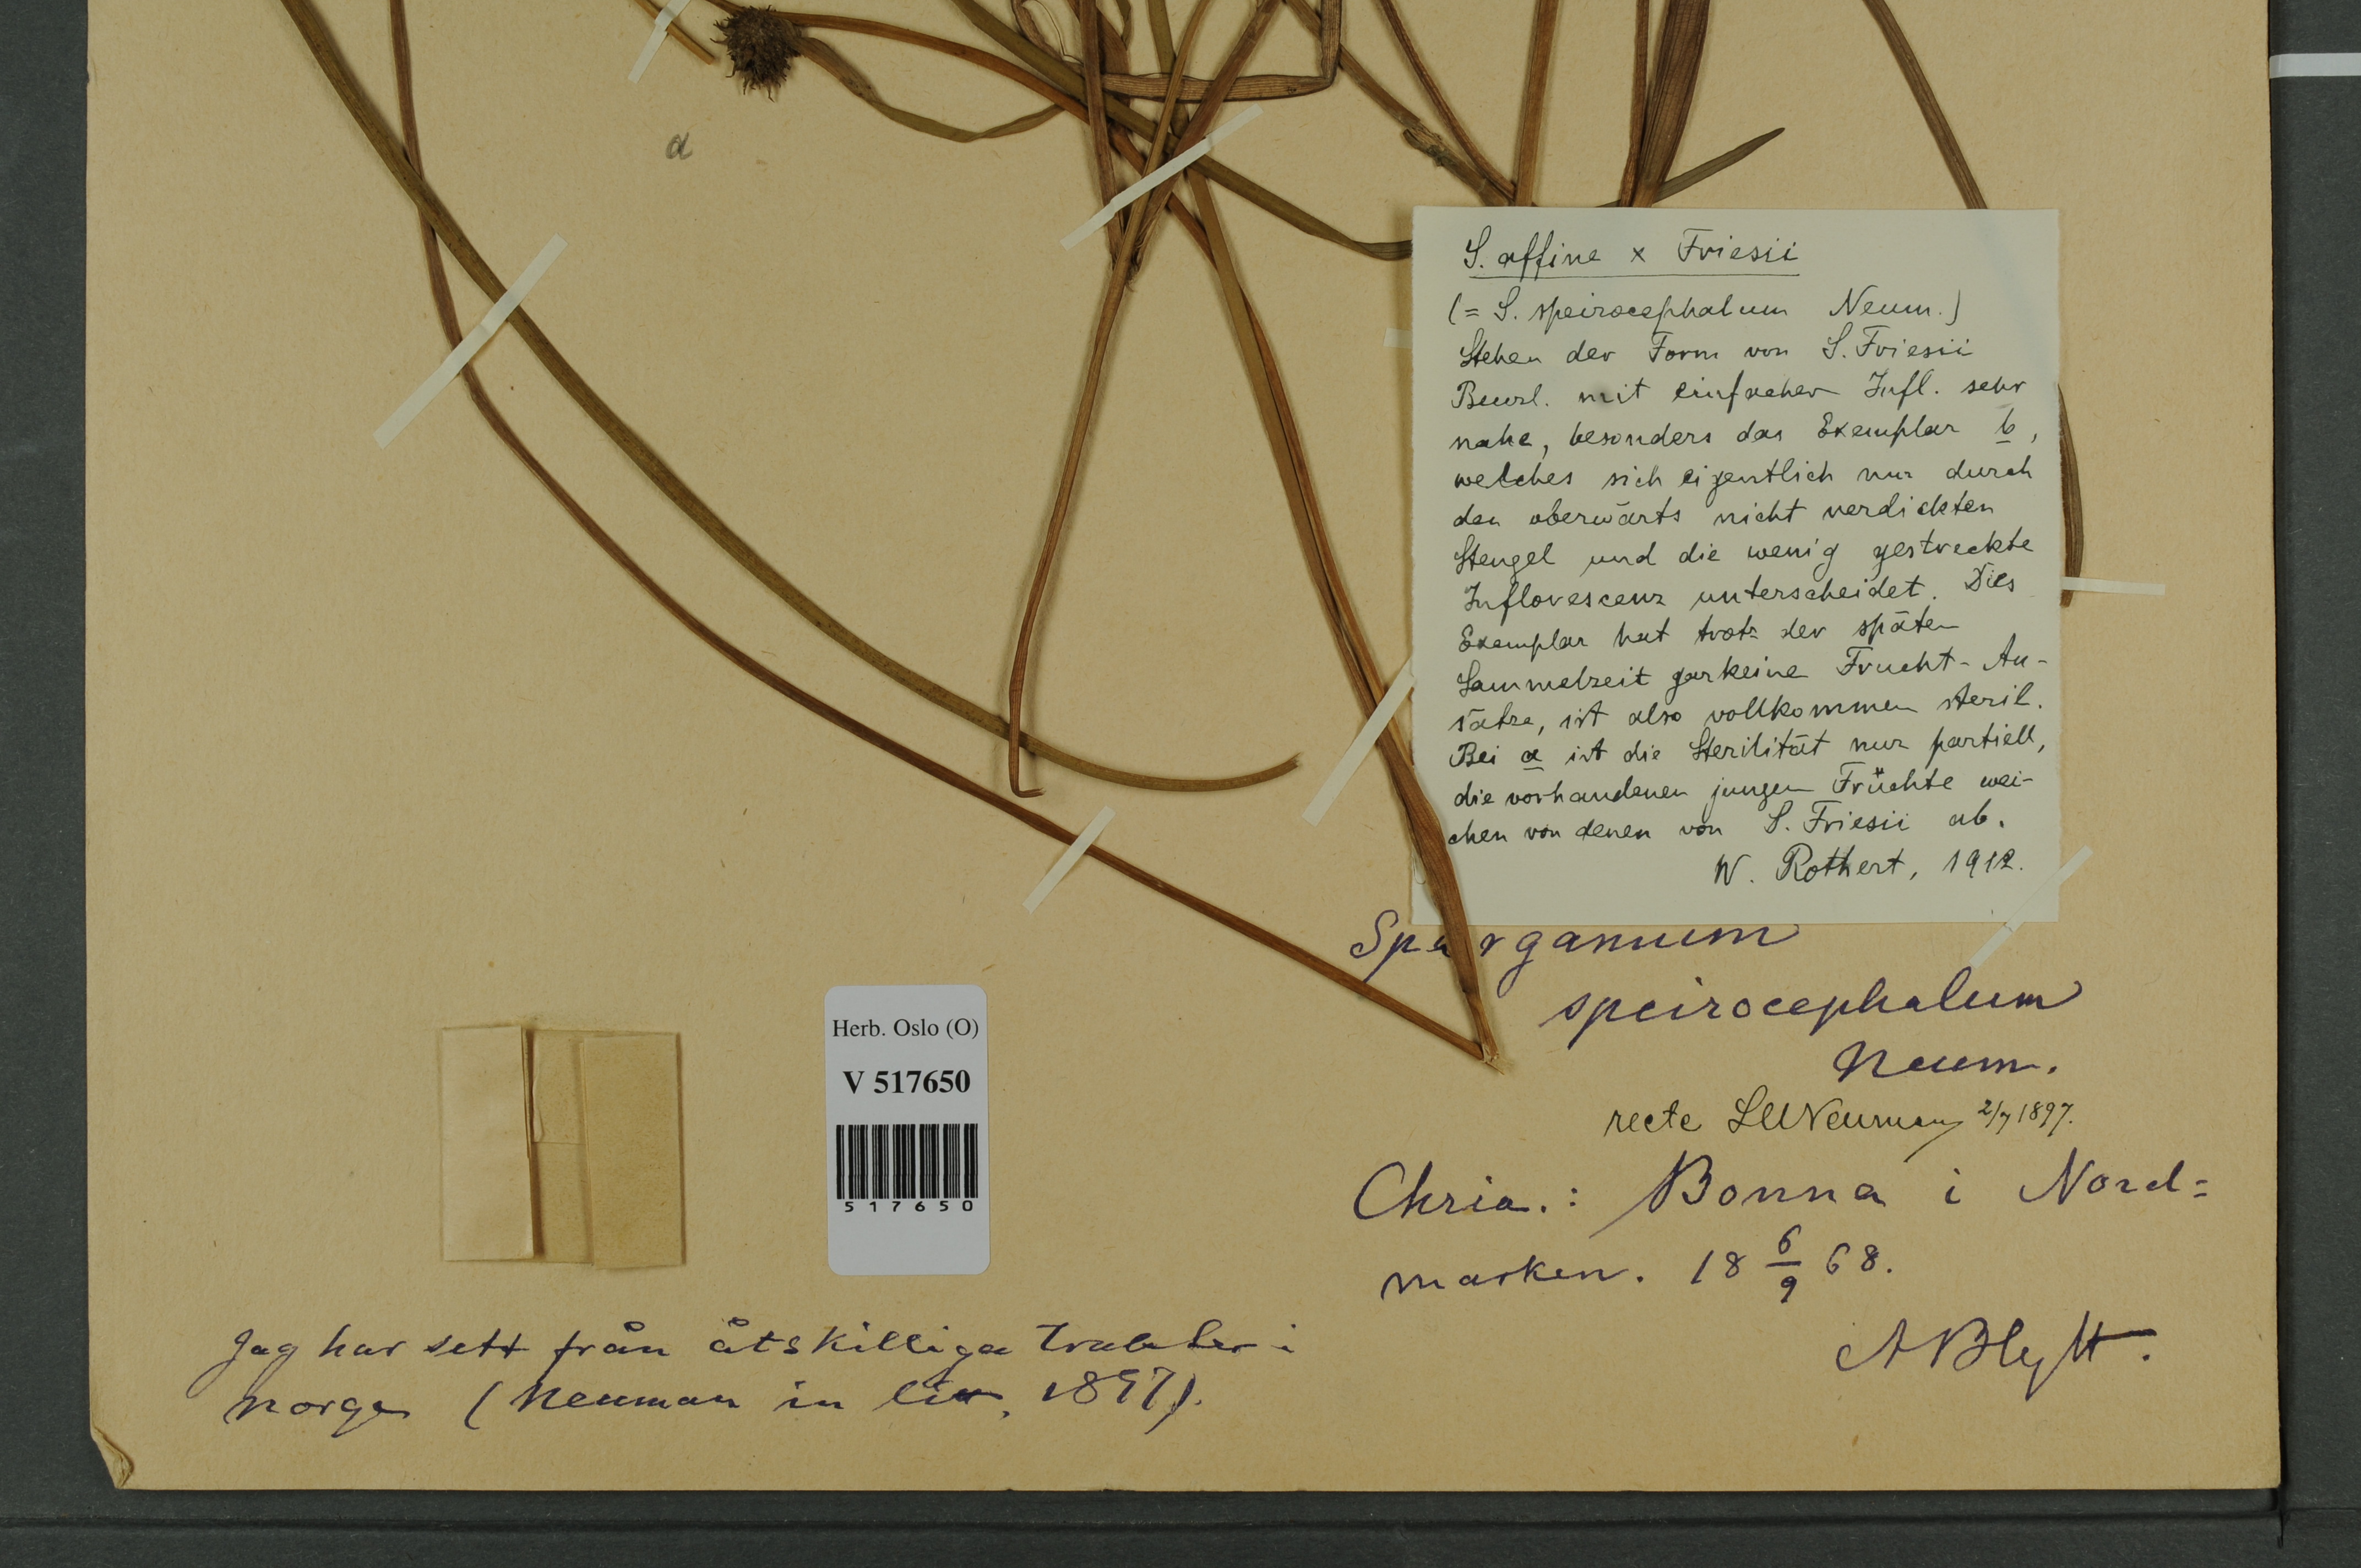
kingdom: Plantae
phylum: Tracheophyta
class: Liliopsida
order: Poales
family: Typhaceae
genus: Sparganium
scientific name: Sparganium
